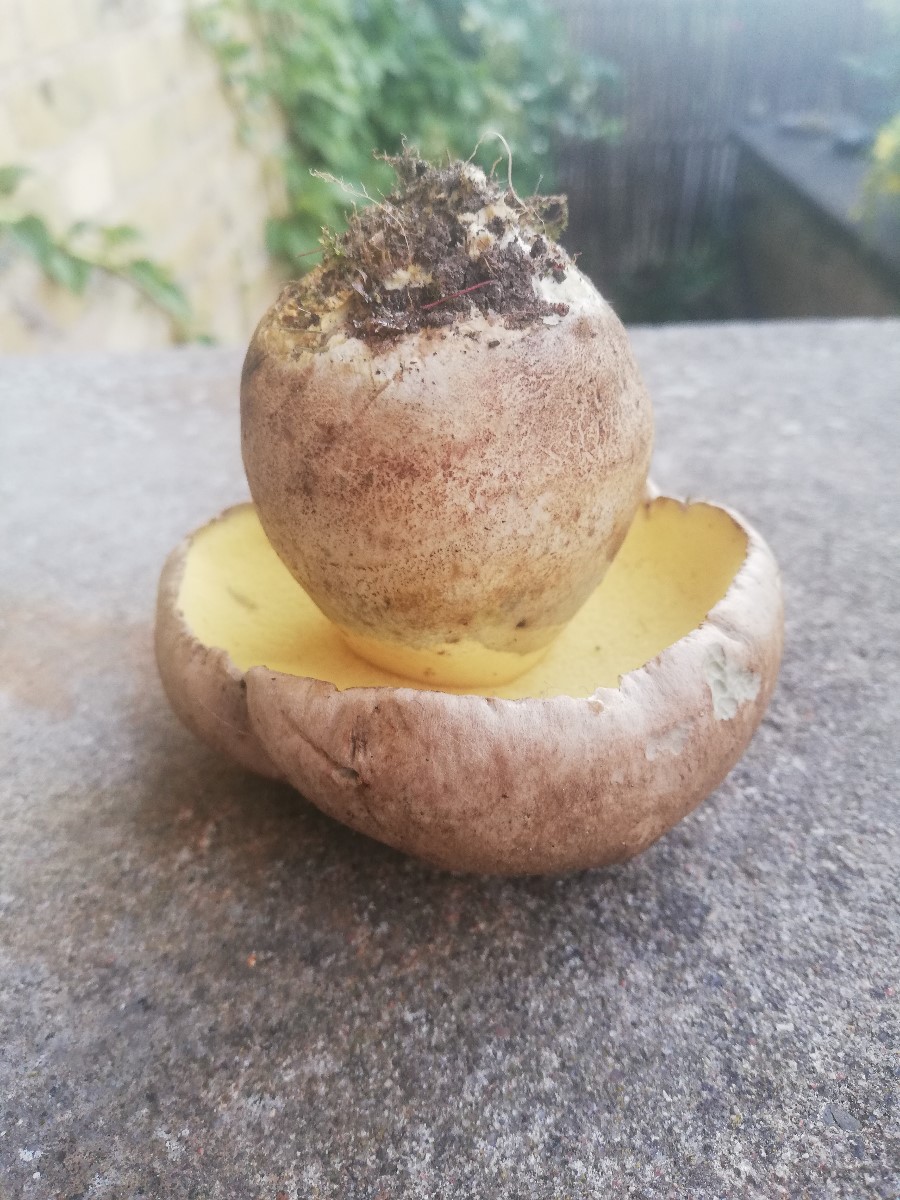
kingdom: Fungi
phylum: Basidiomycota
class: Agaricomycetes
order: Boletales
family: Boletaceae
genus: Caloboletus
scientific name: Caloboletus radicans
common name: rod-rørhat
